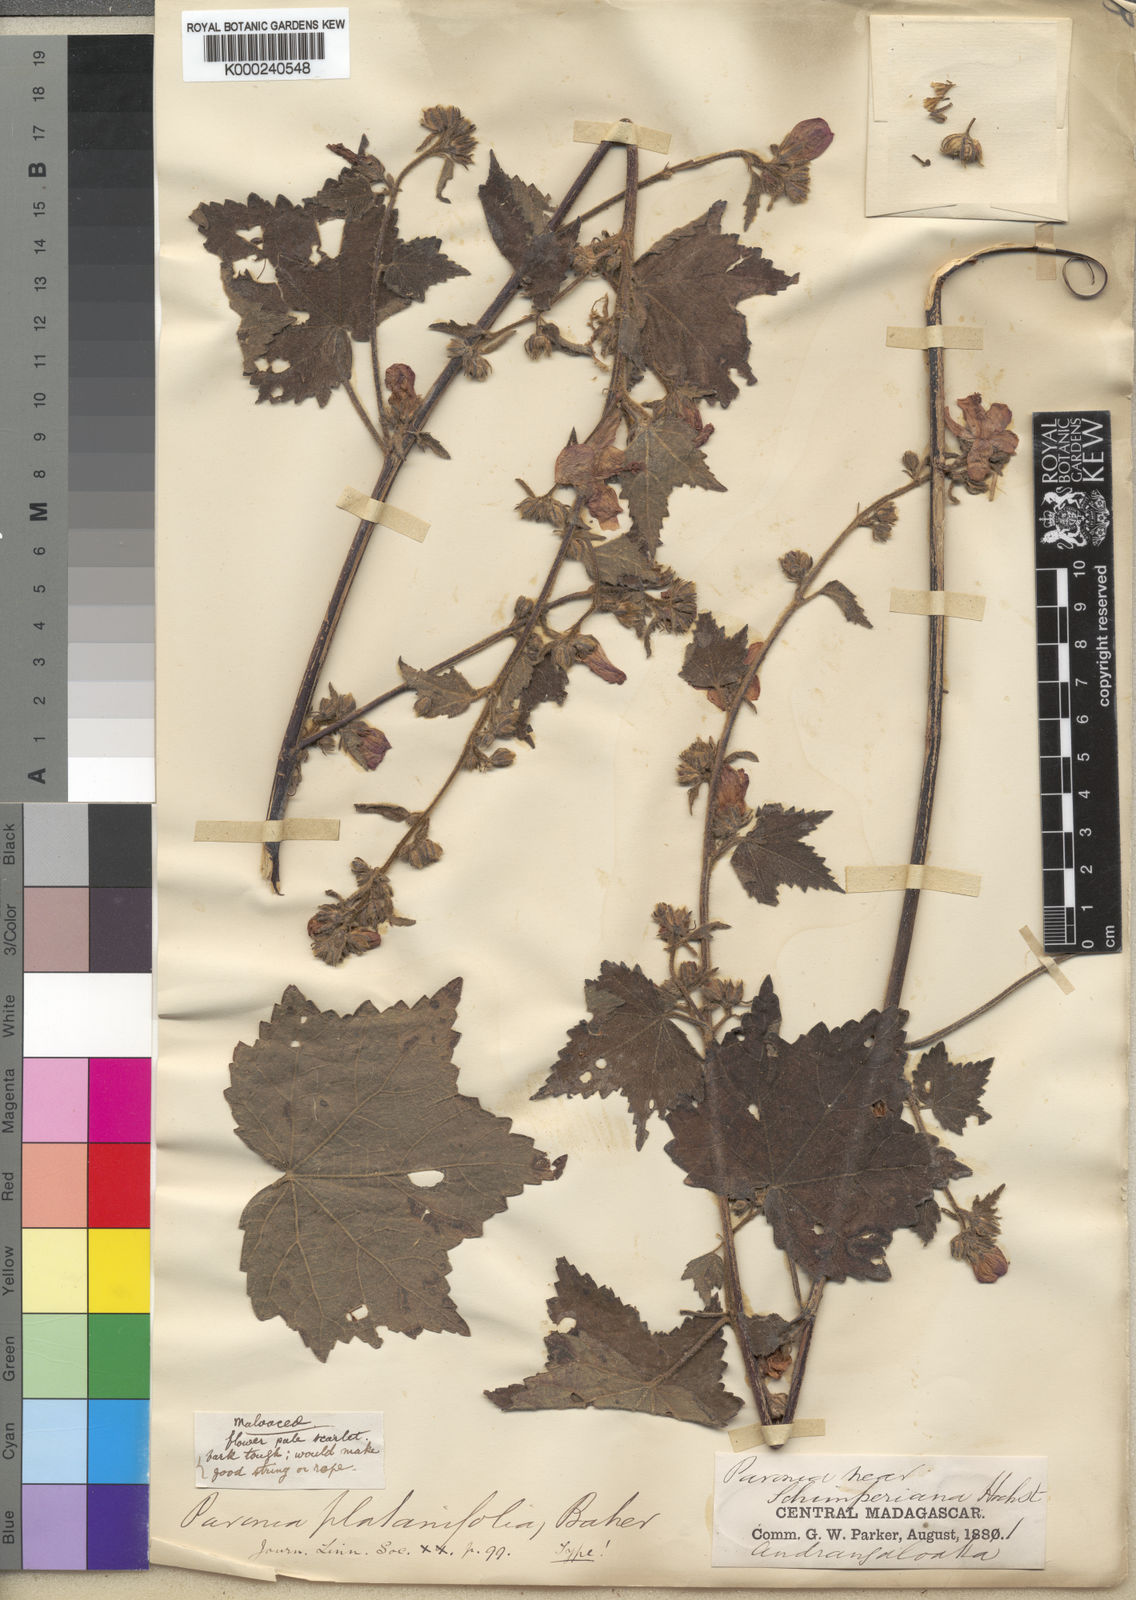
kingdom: Plantae
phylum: Tracheophyta
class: Magnoliopsida
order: Malvales
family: Malvaceae
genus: Pavonia
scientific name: Pavonia baillonii
